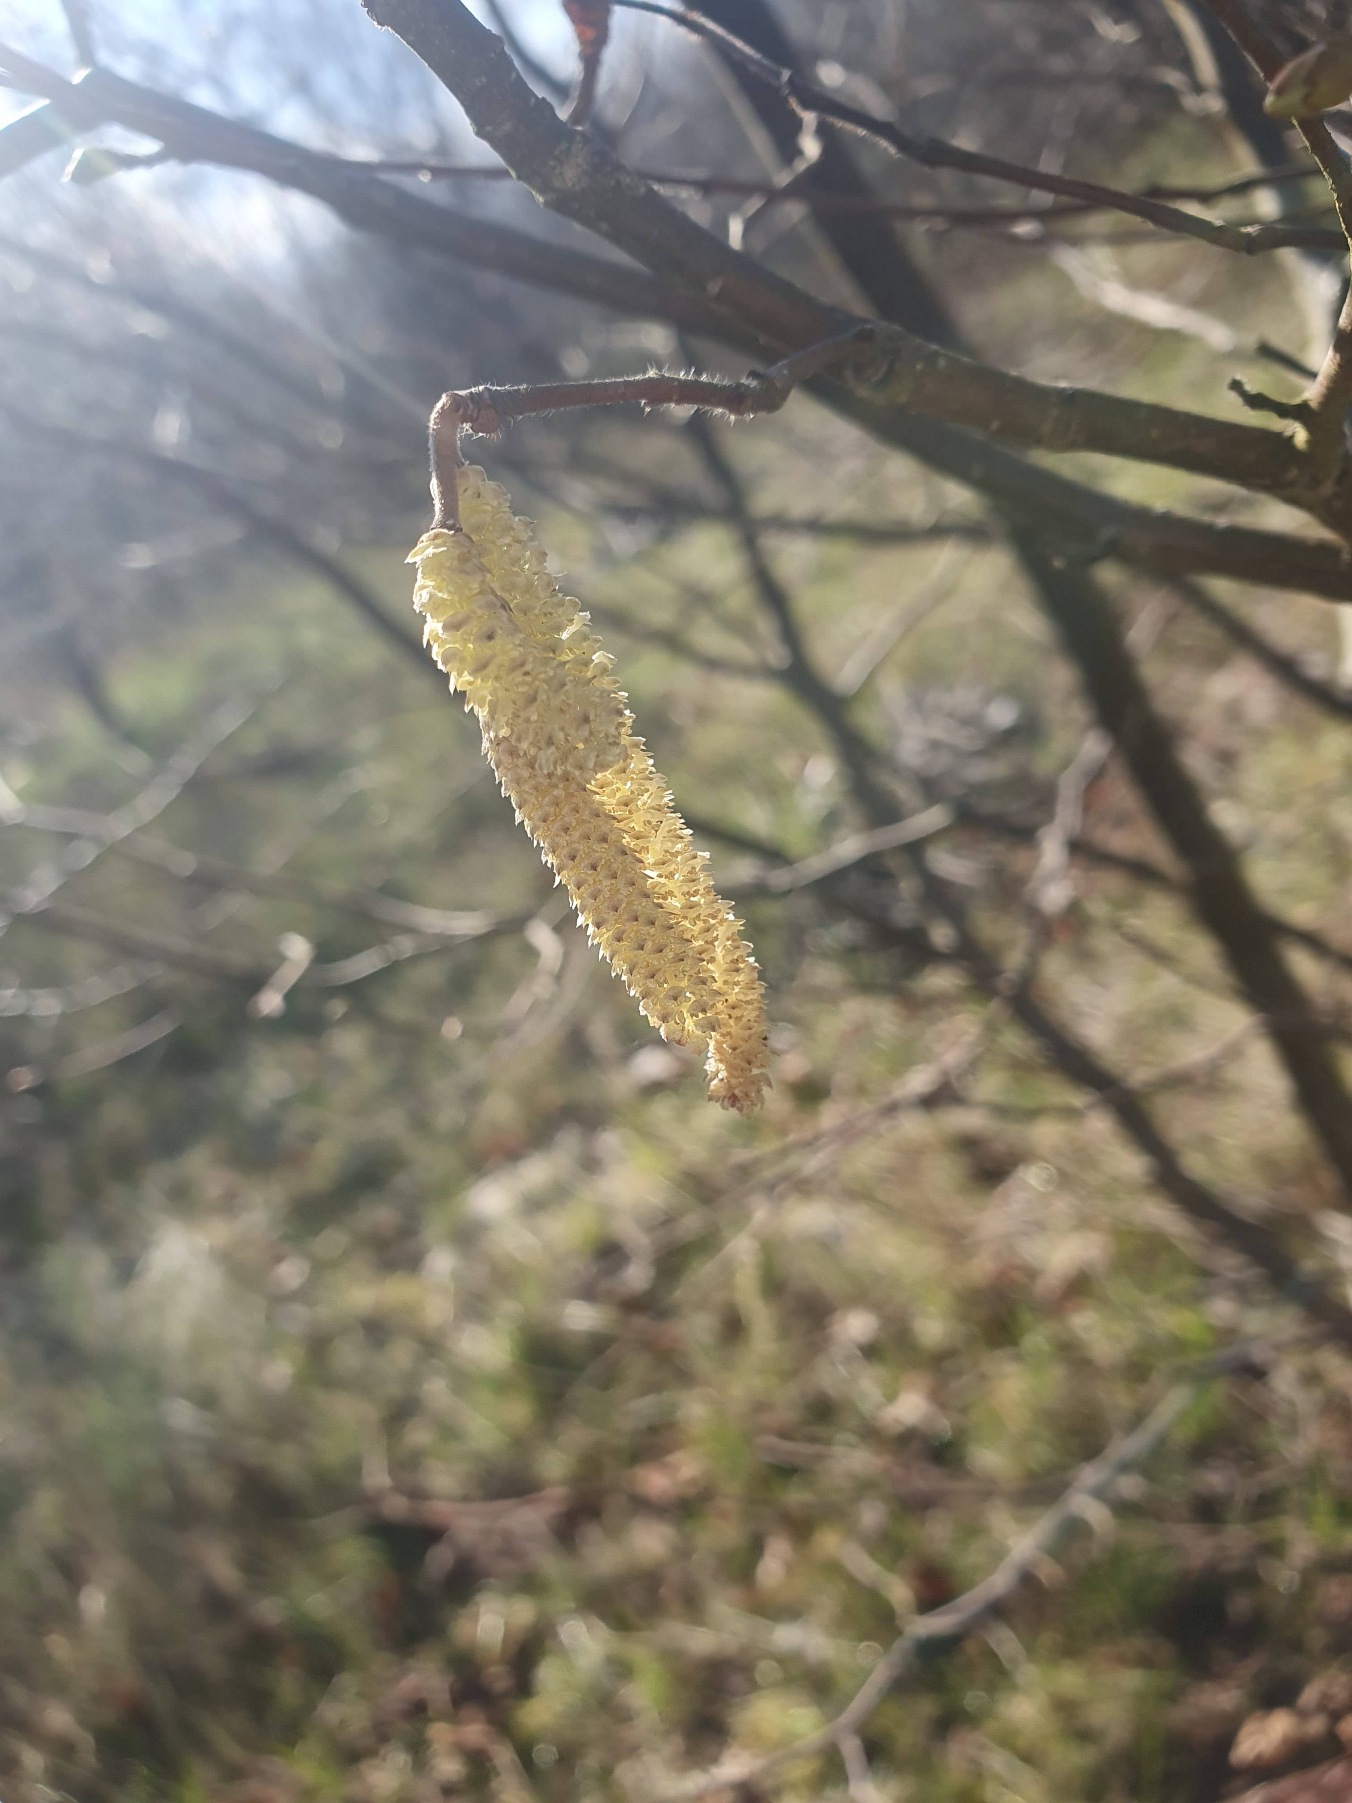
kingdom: Plantae
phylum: Tracheophyta
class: Magnoliopsida
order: Fagales
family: Betulaceae
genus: Corylus
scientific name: Corylus avellana
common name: Hassel
